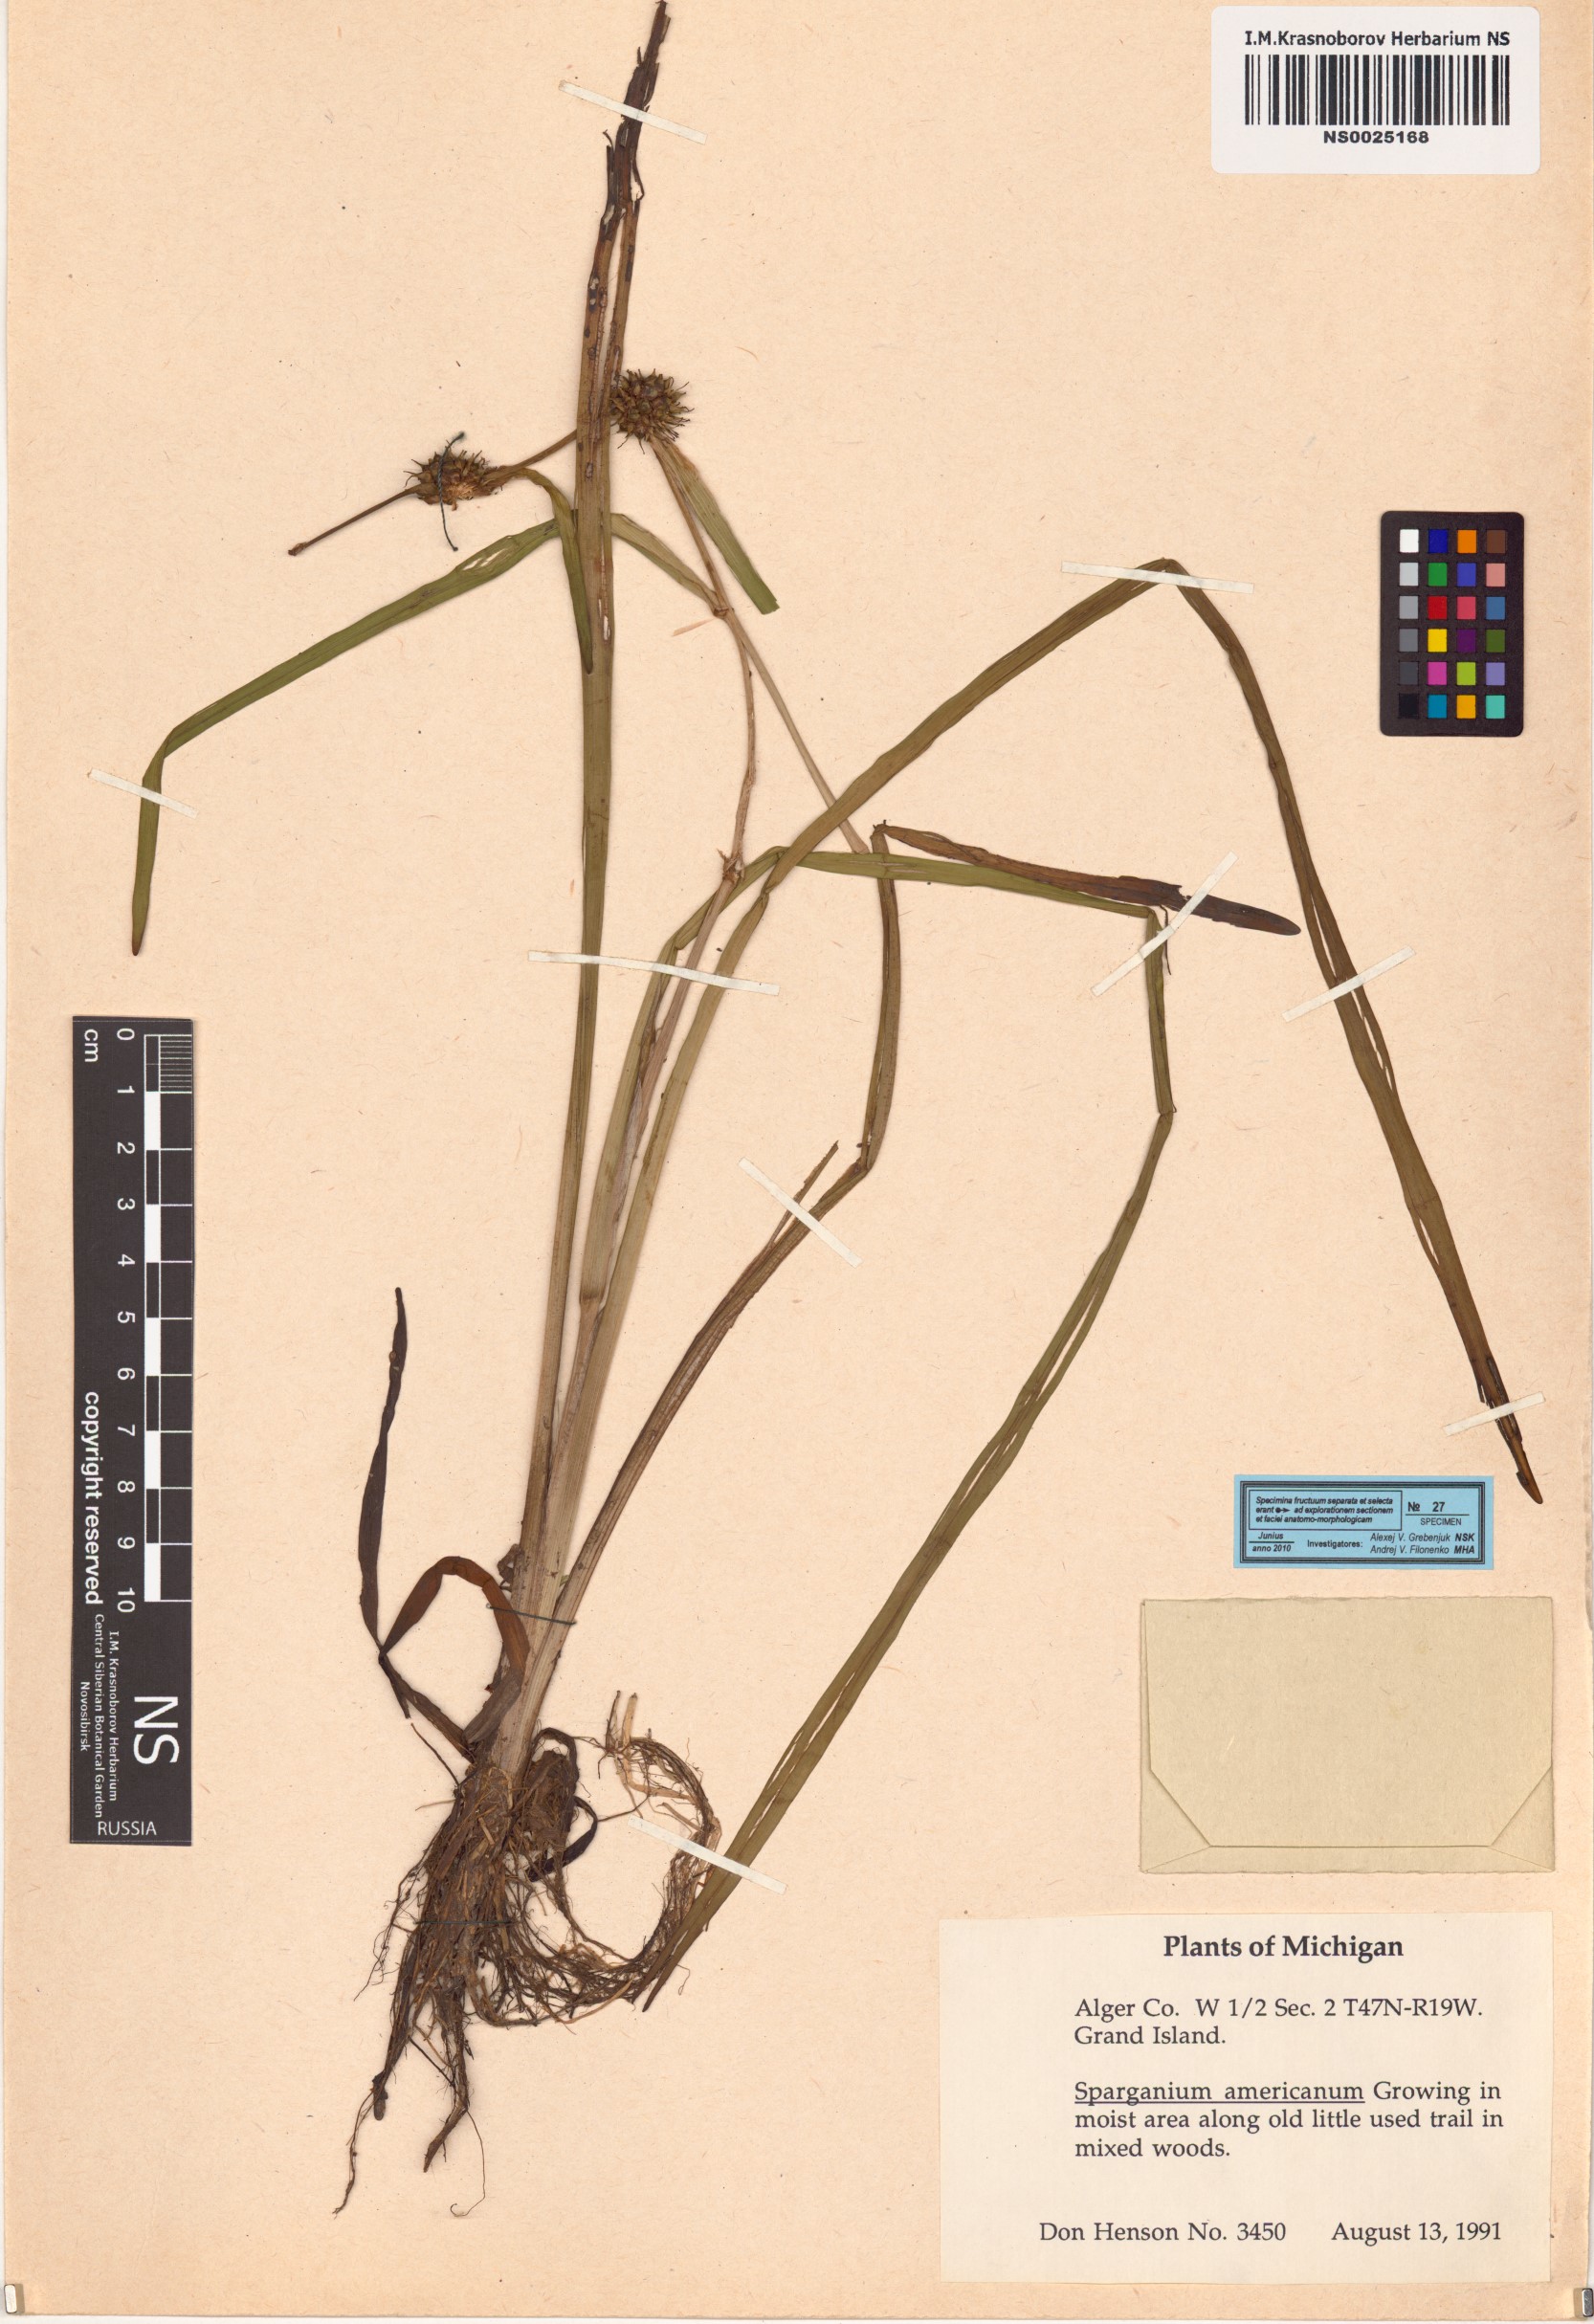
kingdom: Plantae
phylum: Tracheophyta
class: Liliopsida
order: Poales
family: Typhaceae
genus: Sparganium
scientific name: Sparganium americanum
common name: American burreed
